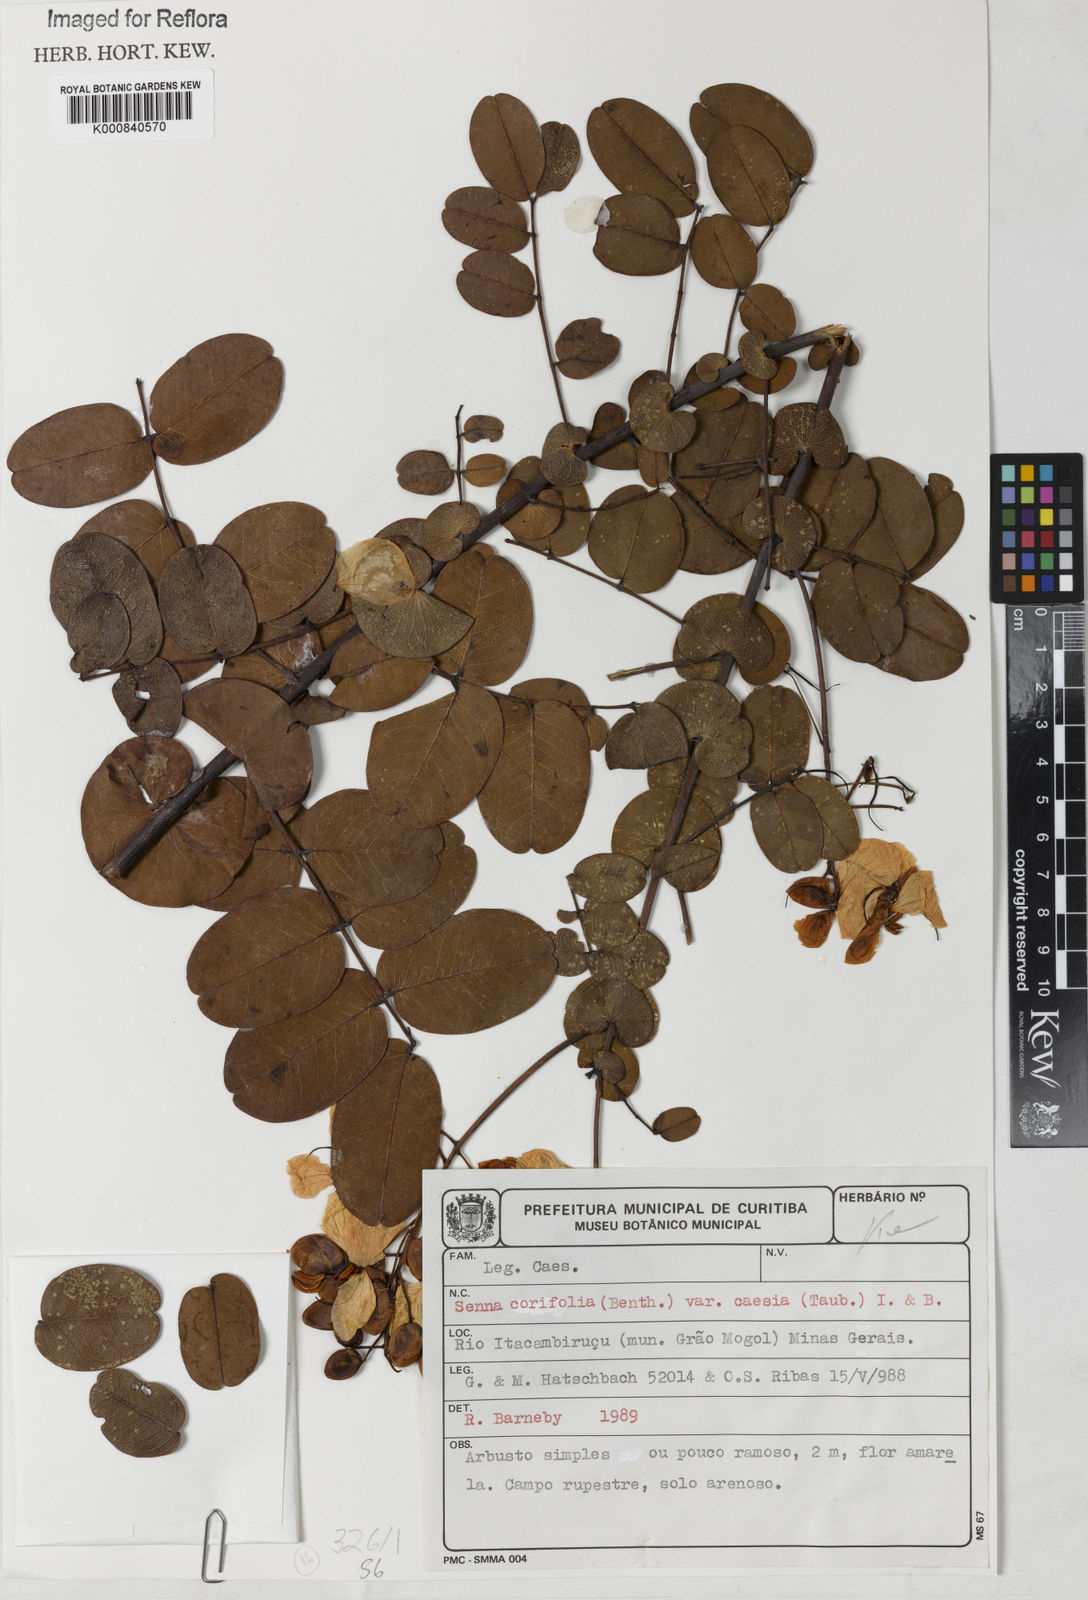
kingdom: Plantae
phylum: Tracheophyta
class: Magnoliopsida
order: Fabales
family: Fabaceae
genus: Senna
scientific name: Senna corifolia
